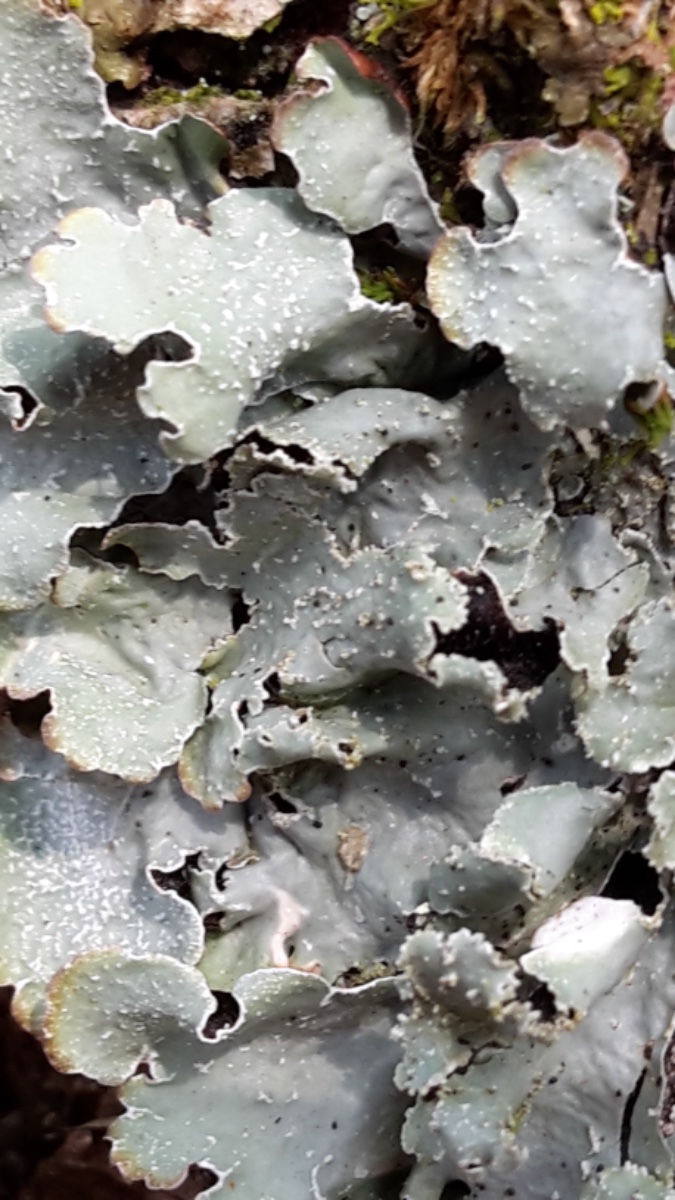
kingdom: Fungi
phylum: Ascomycota
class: Lecanoromycetes
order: Lecanorales
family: Parmeliaceae
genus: Parmelia
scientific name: Parmelia saxatilis
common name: farve-skållav
